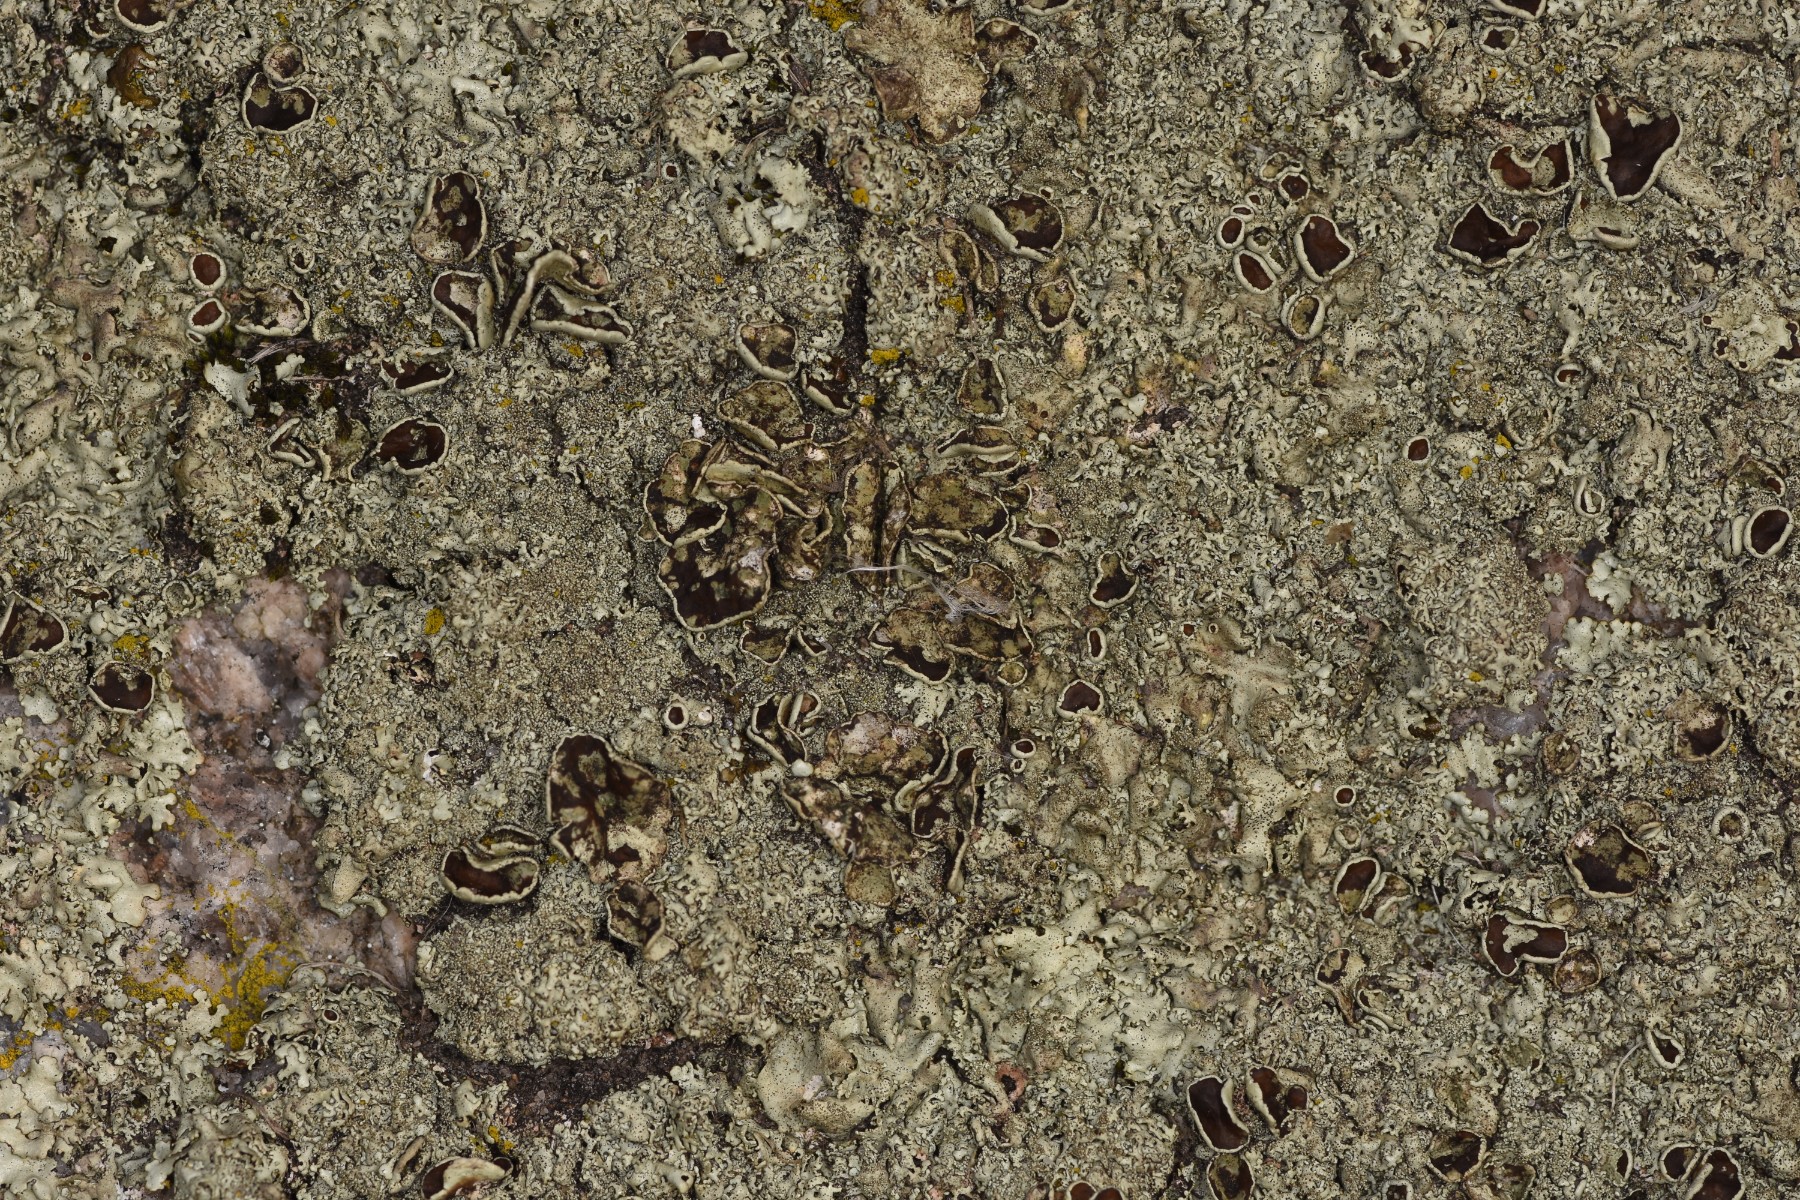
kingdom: Fungi
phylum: Ascomycota
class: Lecanoromycetes
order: Lecanorales
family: Parmeliaceae
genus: Xanthoparmelia
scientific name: Xanthoparmelia conspersa
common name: messing-skållav
